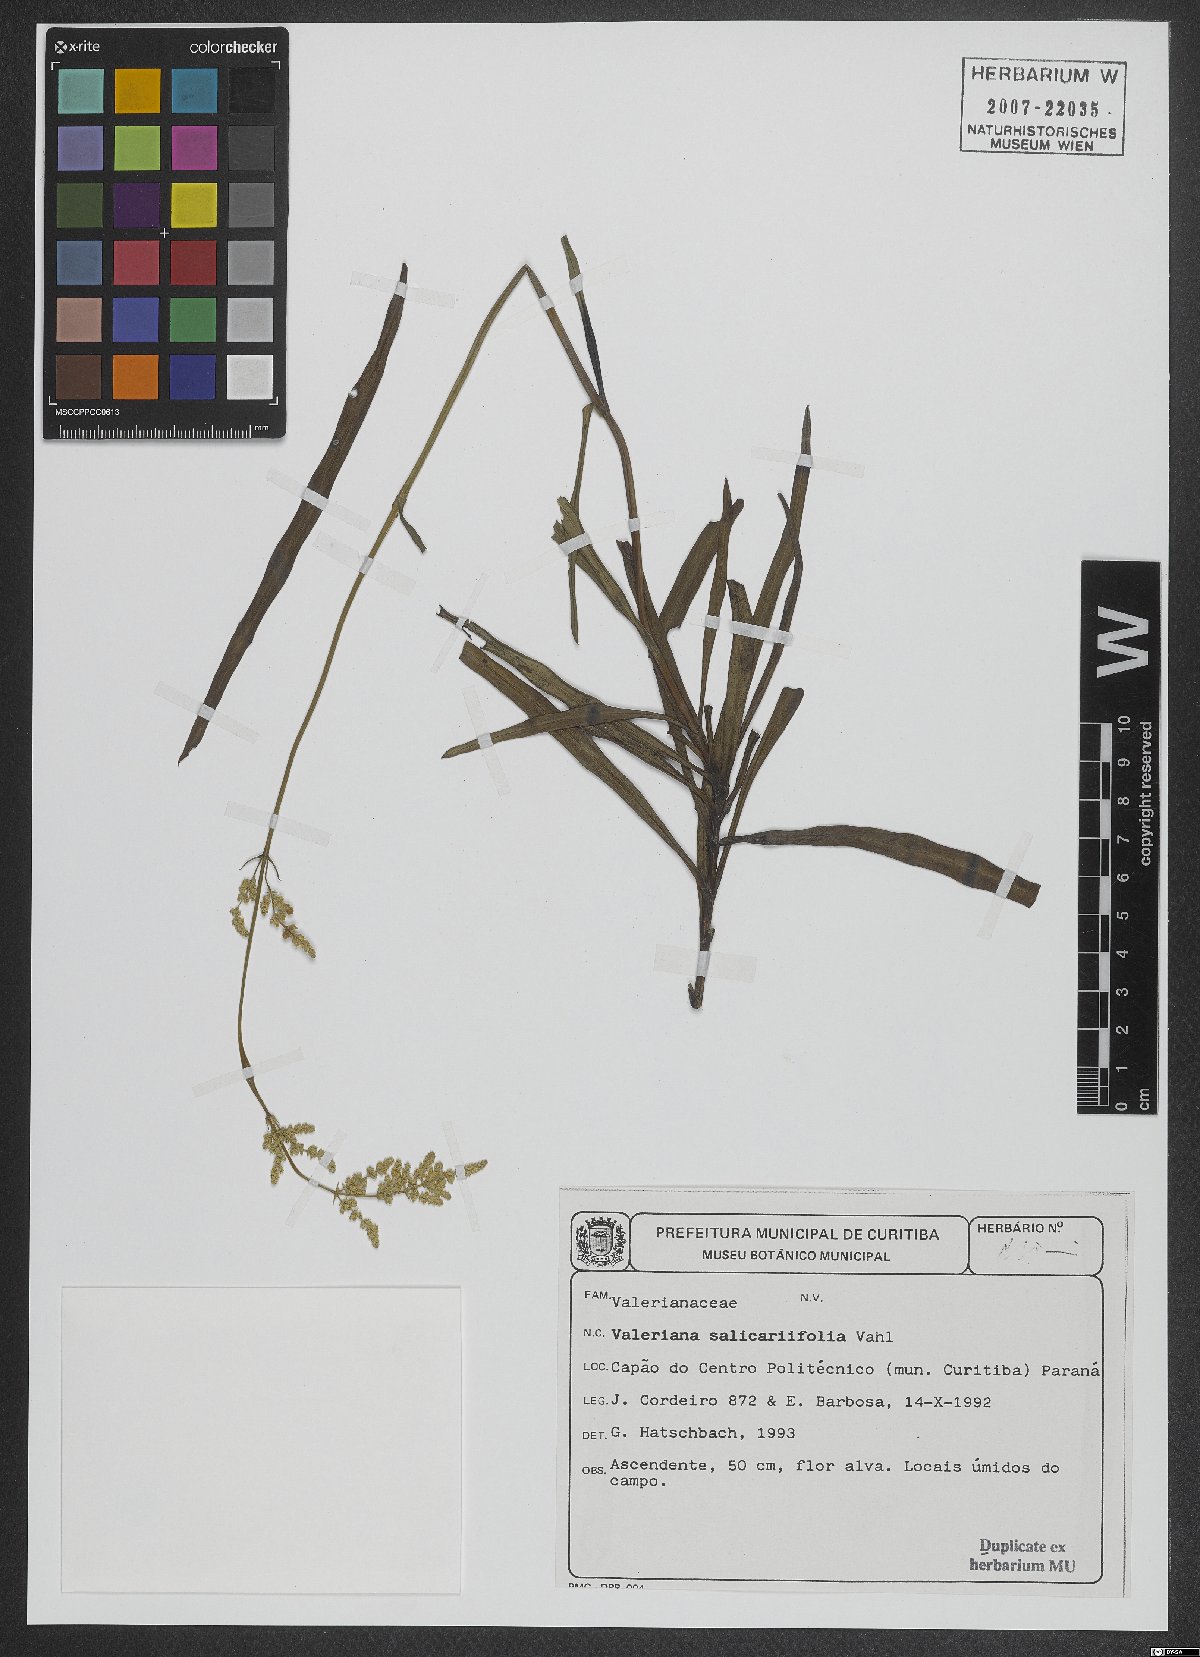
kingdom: Plantae
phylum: Tracheophyta
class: Magnoliopsida
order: Dipsacales
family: Caprifoliaceae
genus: Valeriana
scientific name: Valeriana salicariifolia
